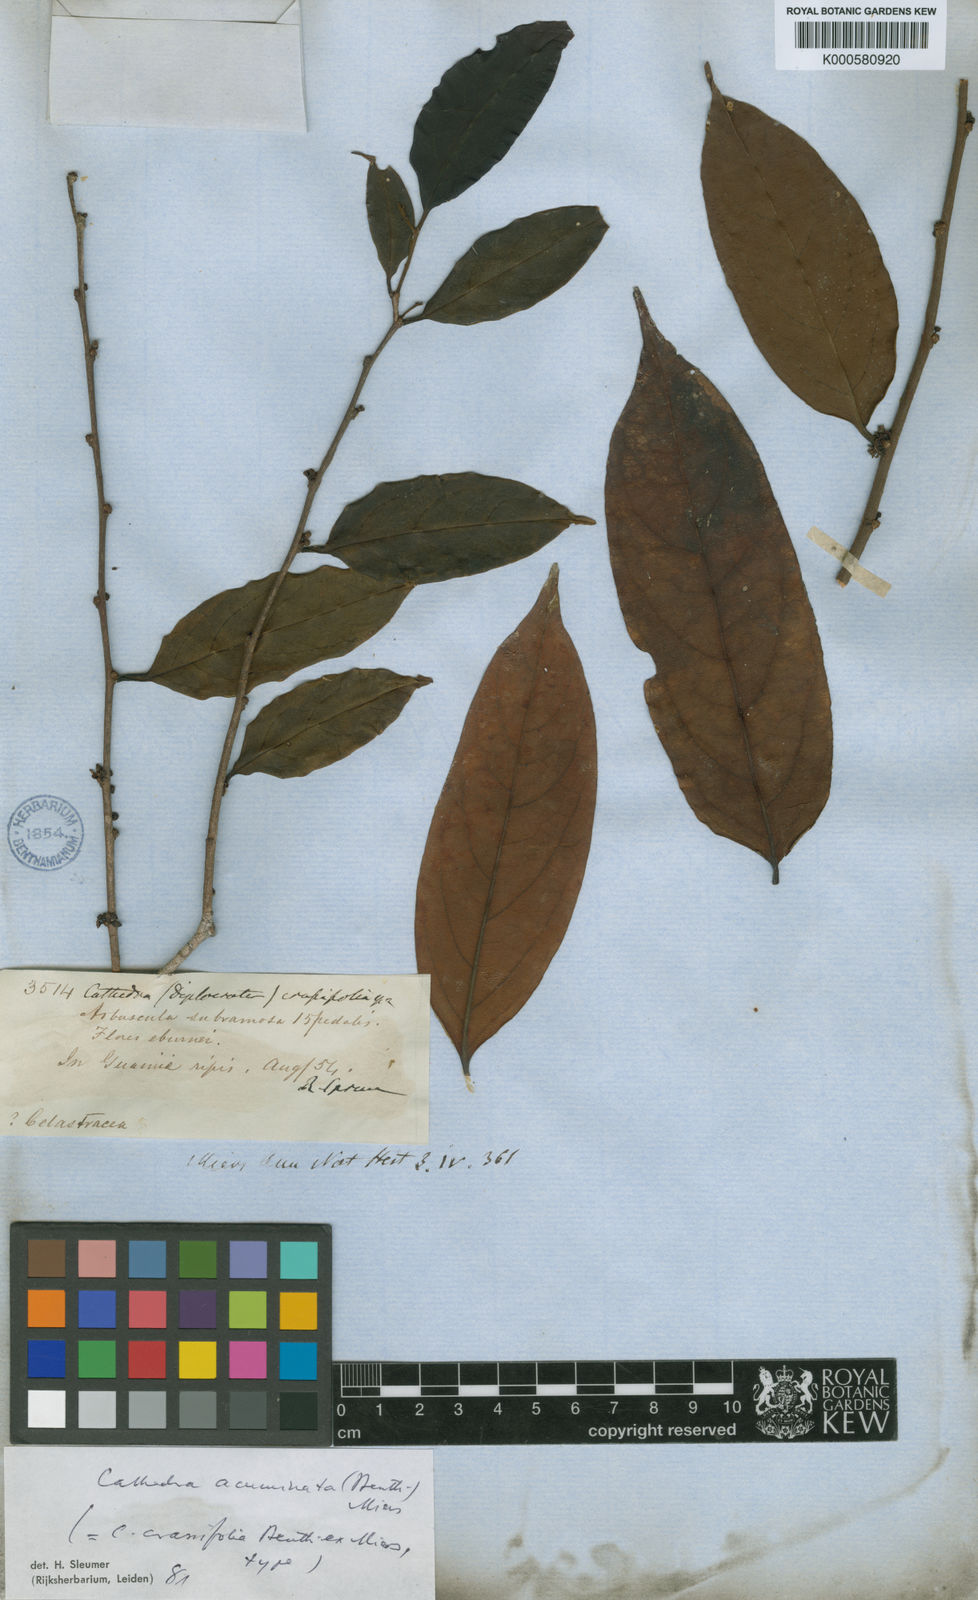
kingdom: Plantae
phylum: Tracheophyta
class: Magnoliopsida
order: Santalales
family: Aptandraceae
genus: Cathedra
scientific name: Cathedra acuminata
